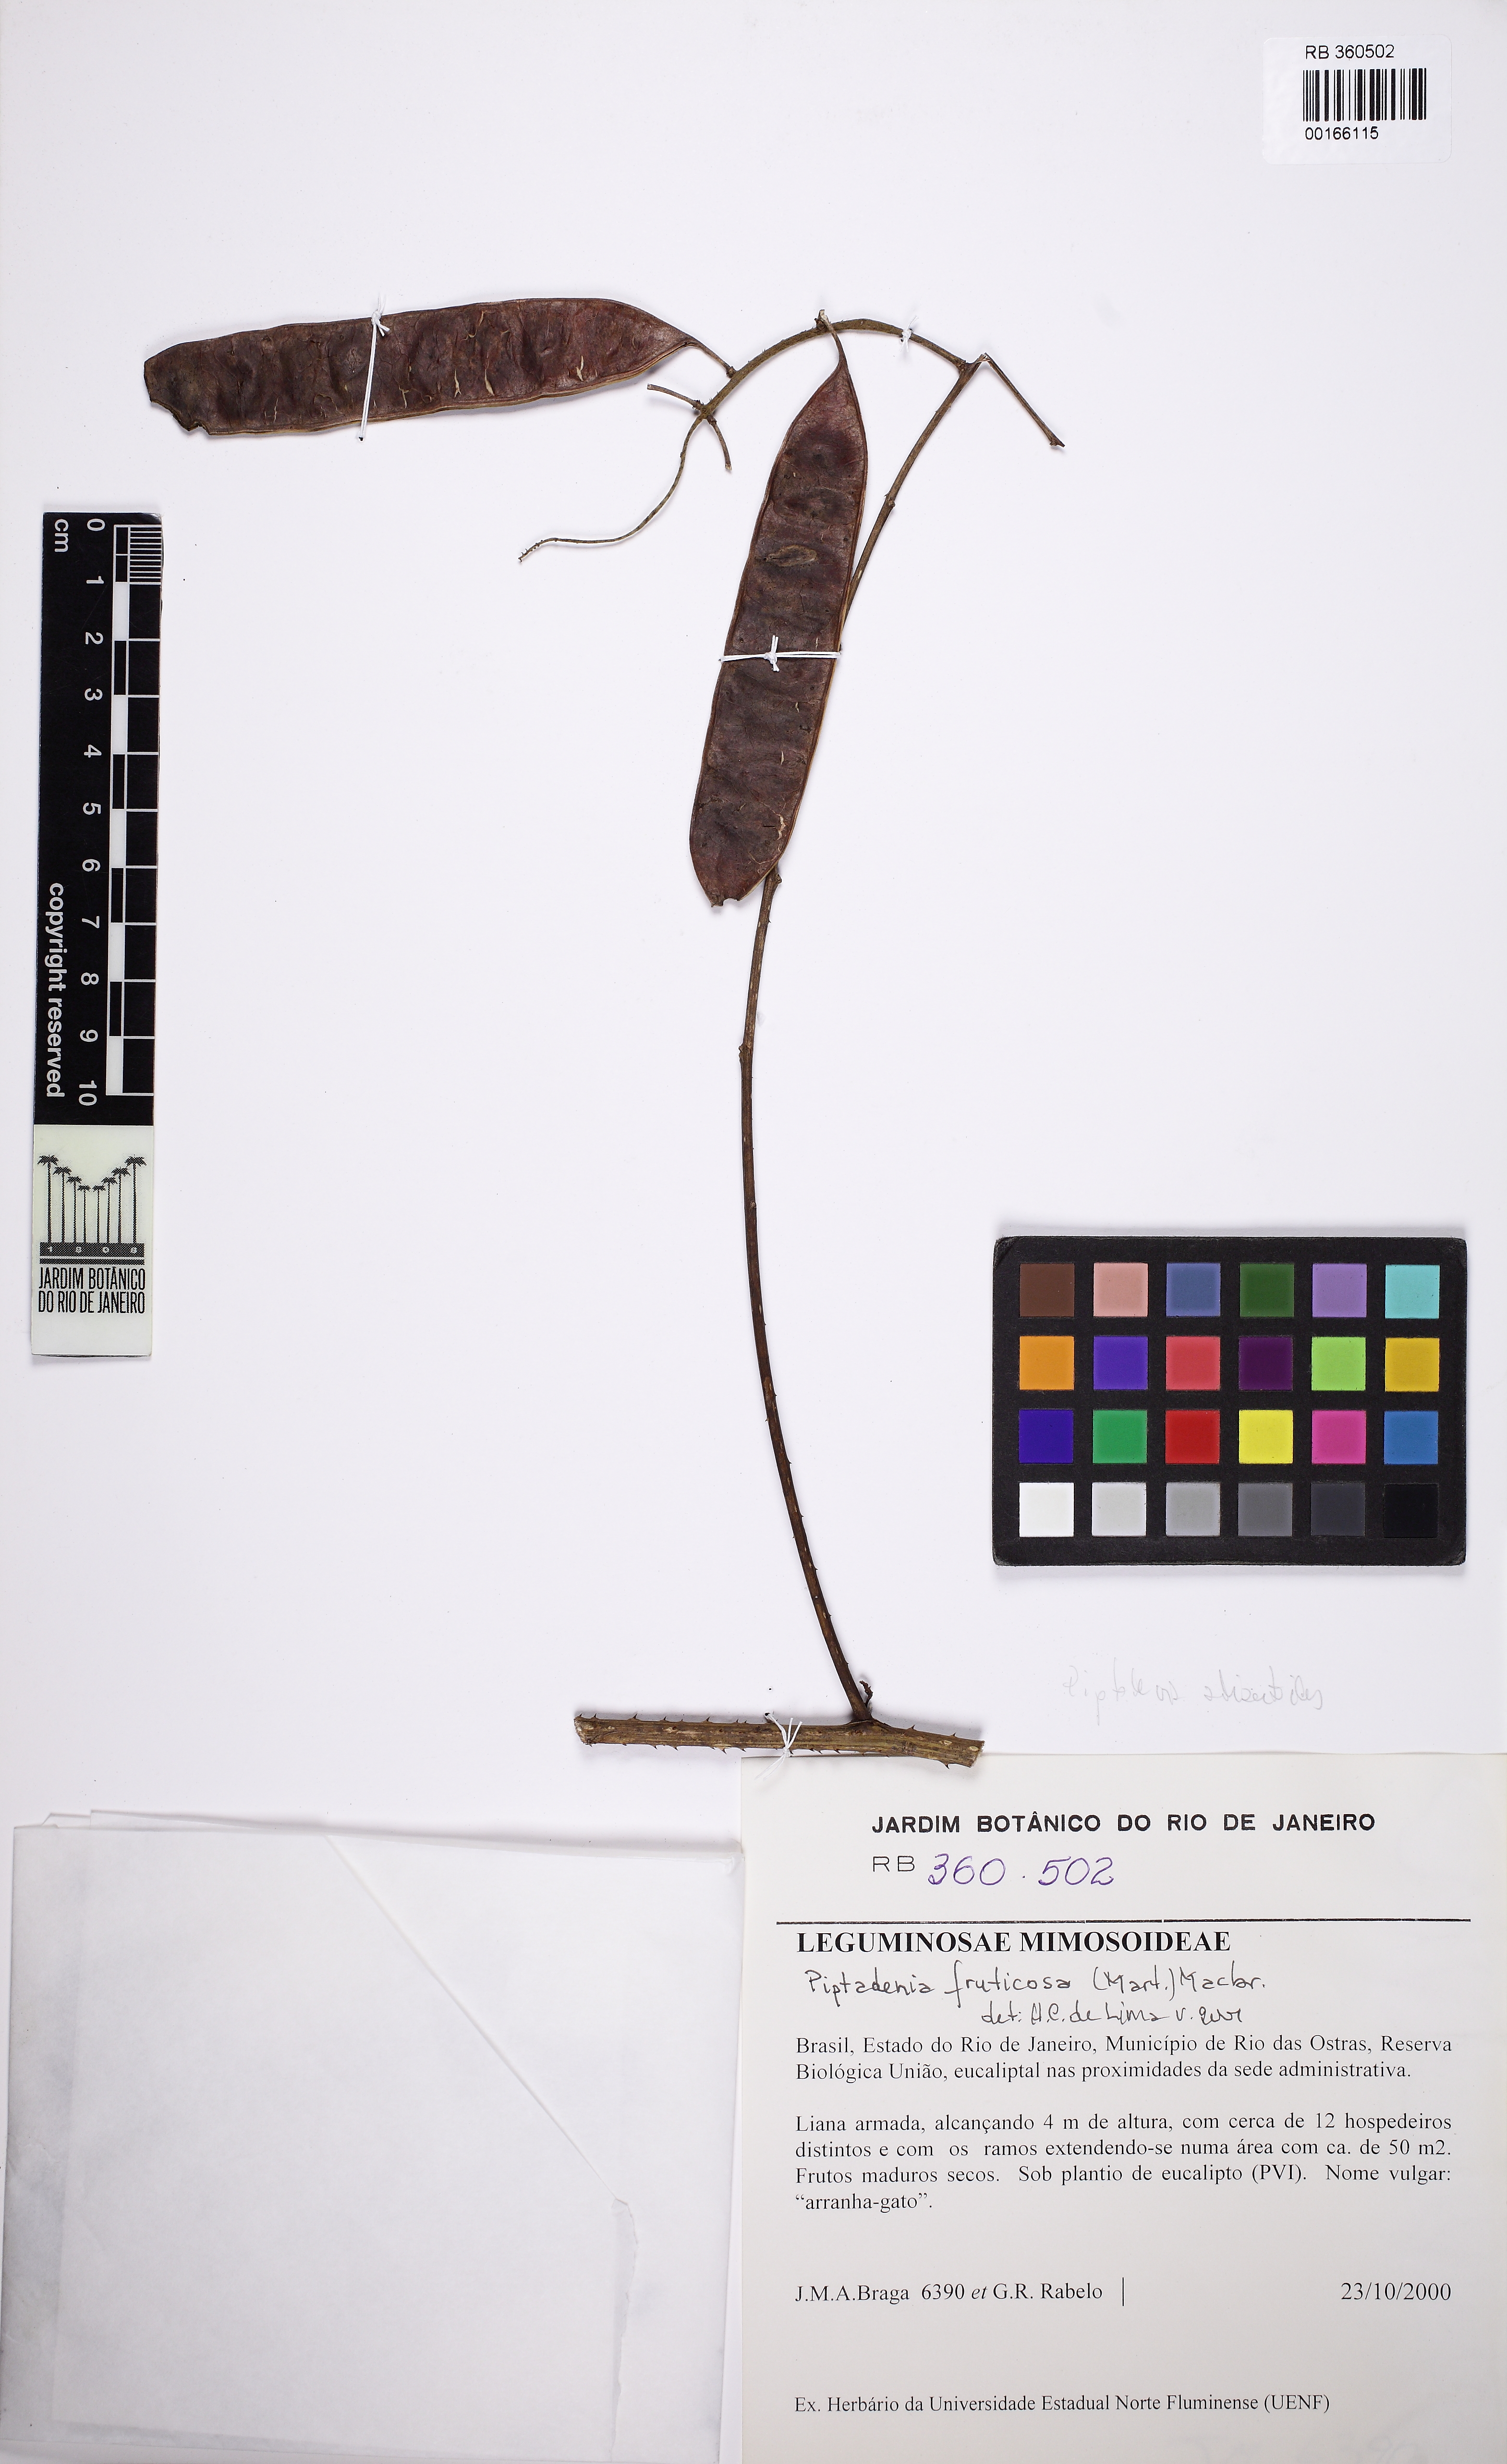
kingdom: Plantae
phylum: Tracheophyta
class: Magnoliopsida
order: Fabales
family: Fabaceae
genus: Pseudopiptadenia
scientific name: Pseudopiptadenia
